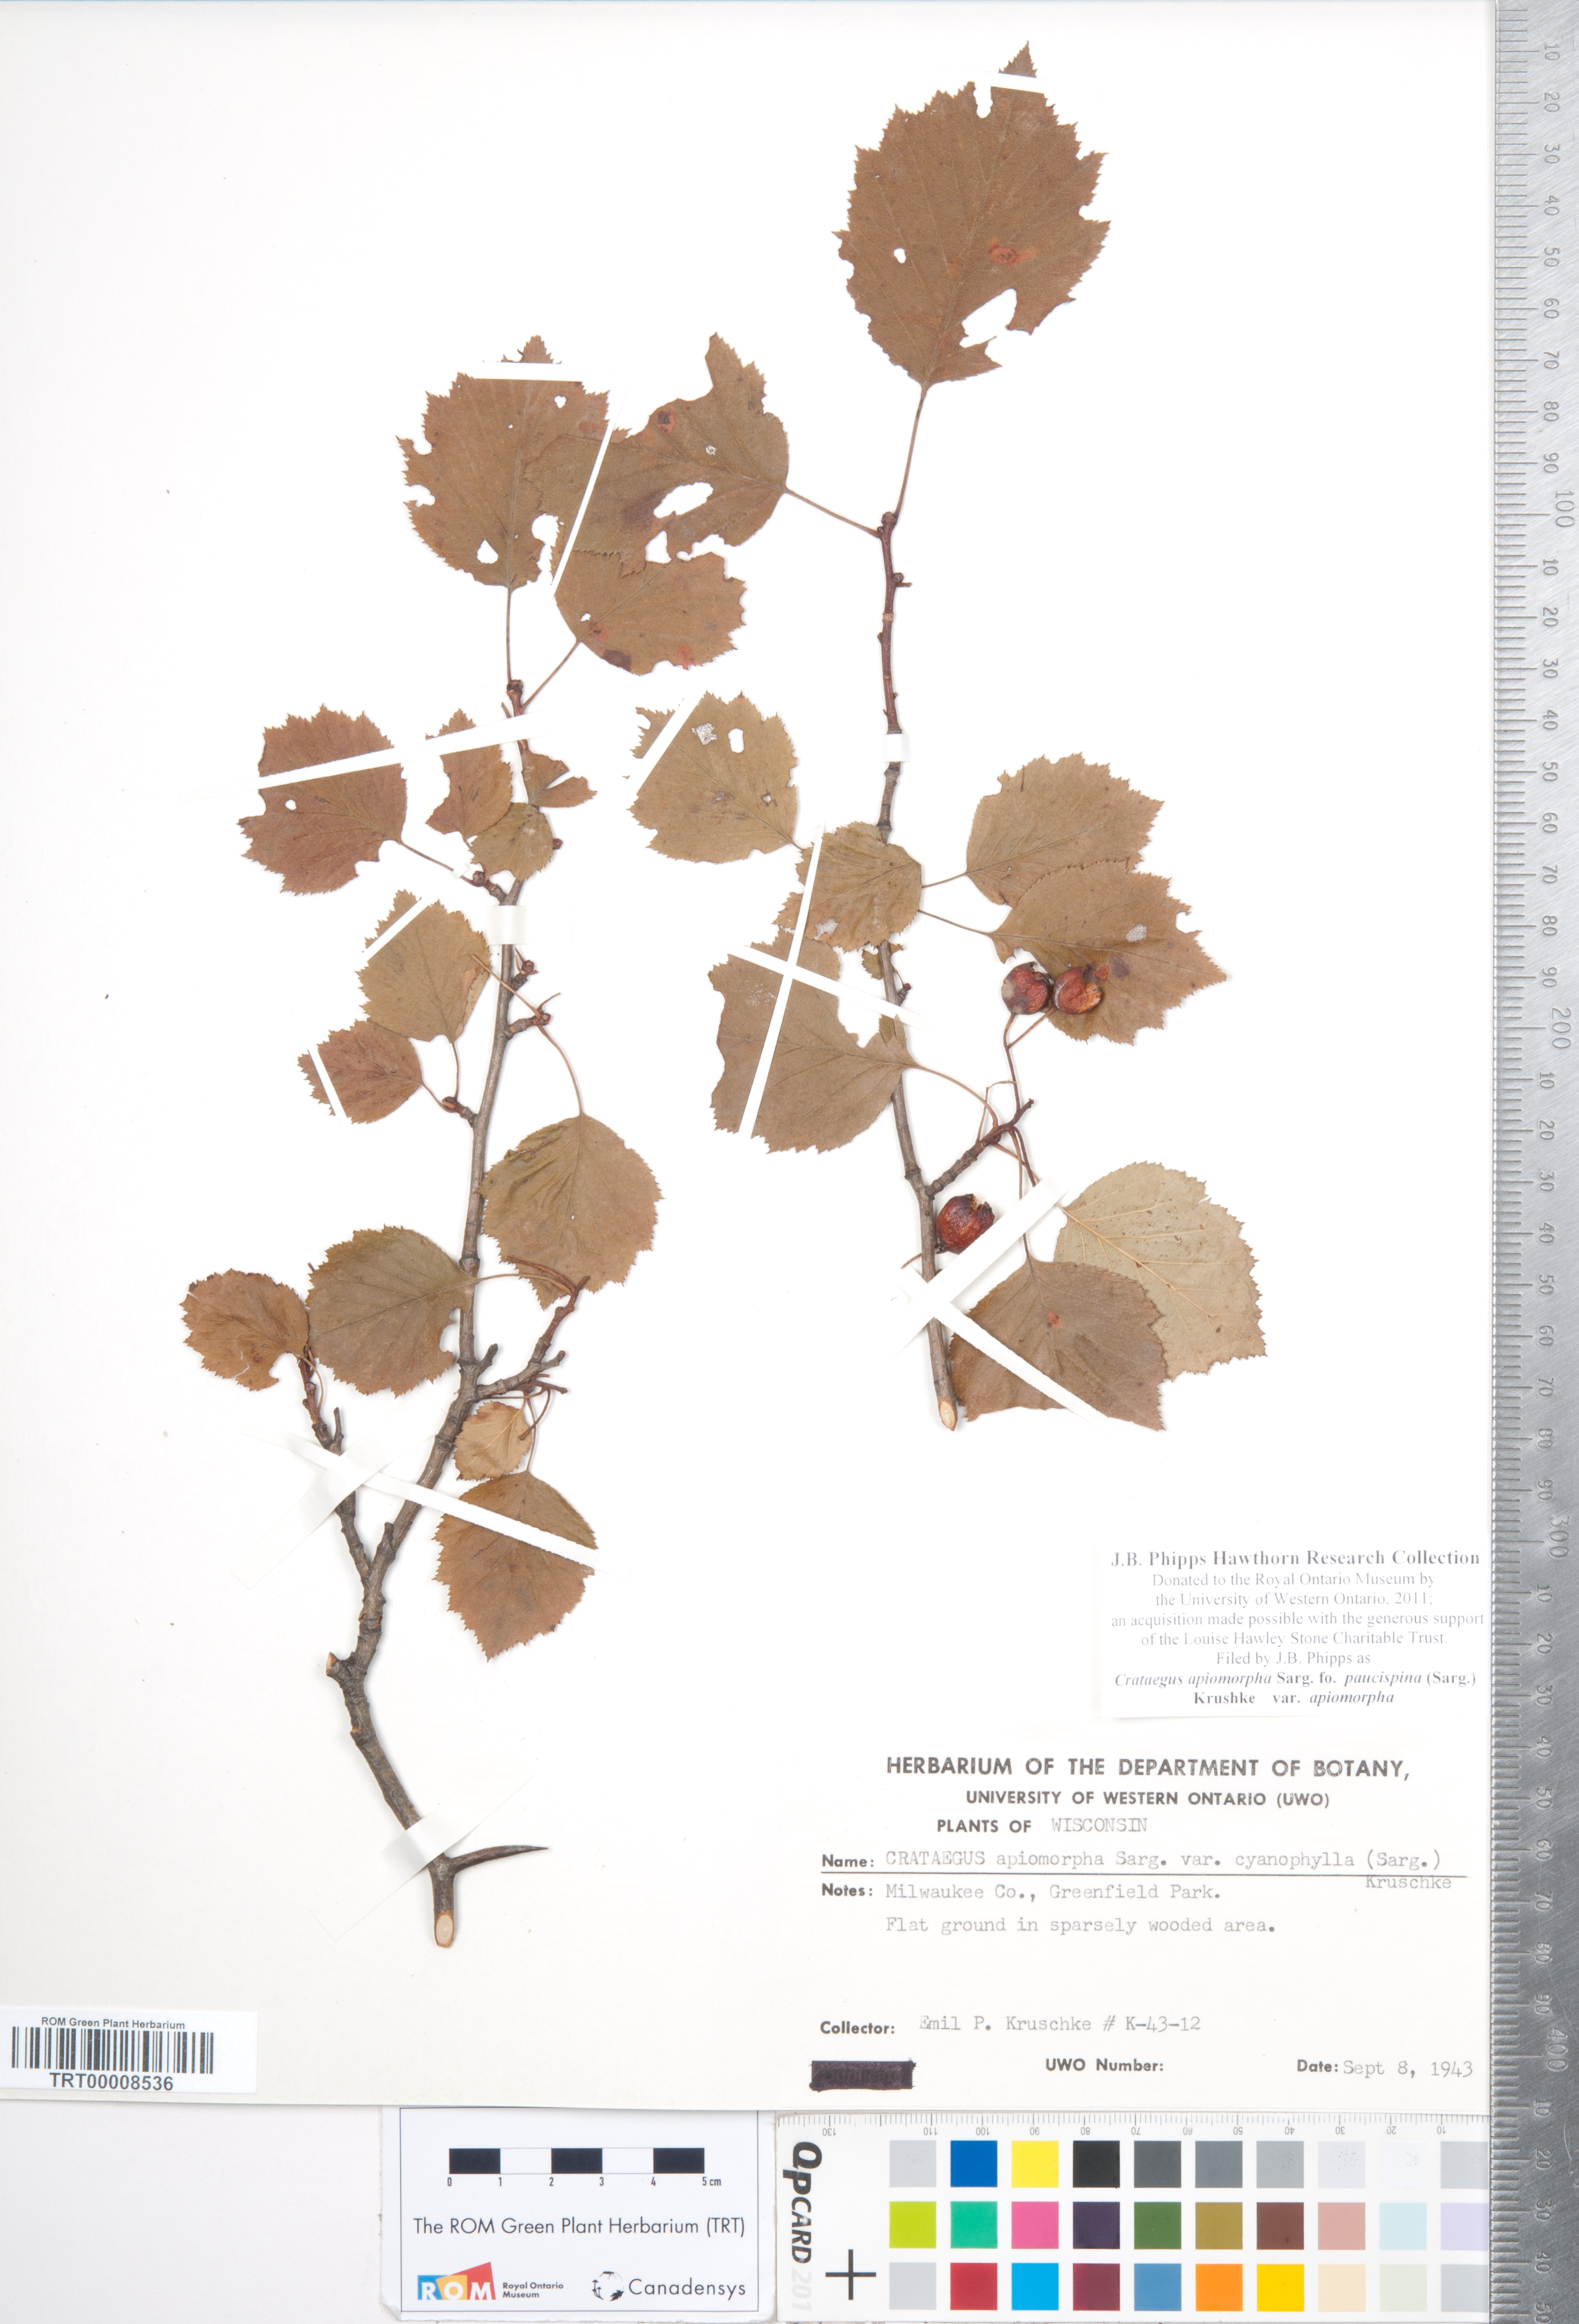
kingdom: Plantae
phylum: Tracheophyta
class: Magnoliopsida
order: Rosales
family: Rosaceae
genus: Crataegus
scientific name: Crataegus fluviatilis
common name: Fort sheridan hawthorn
